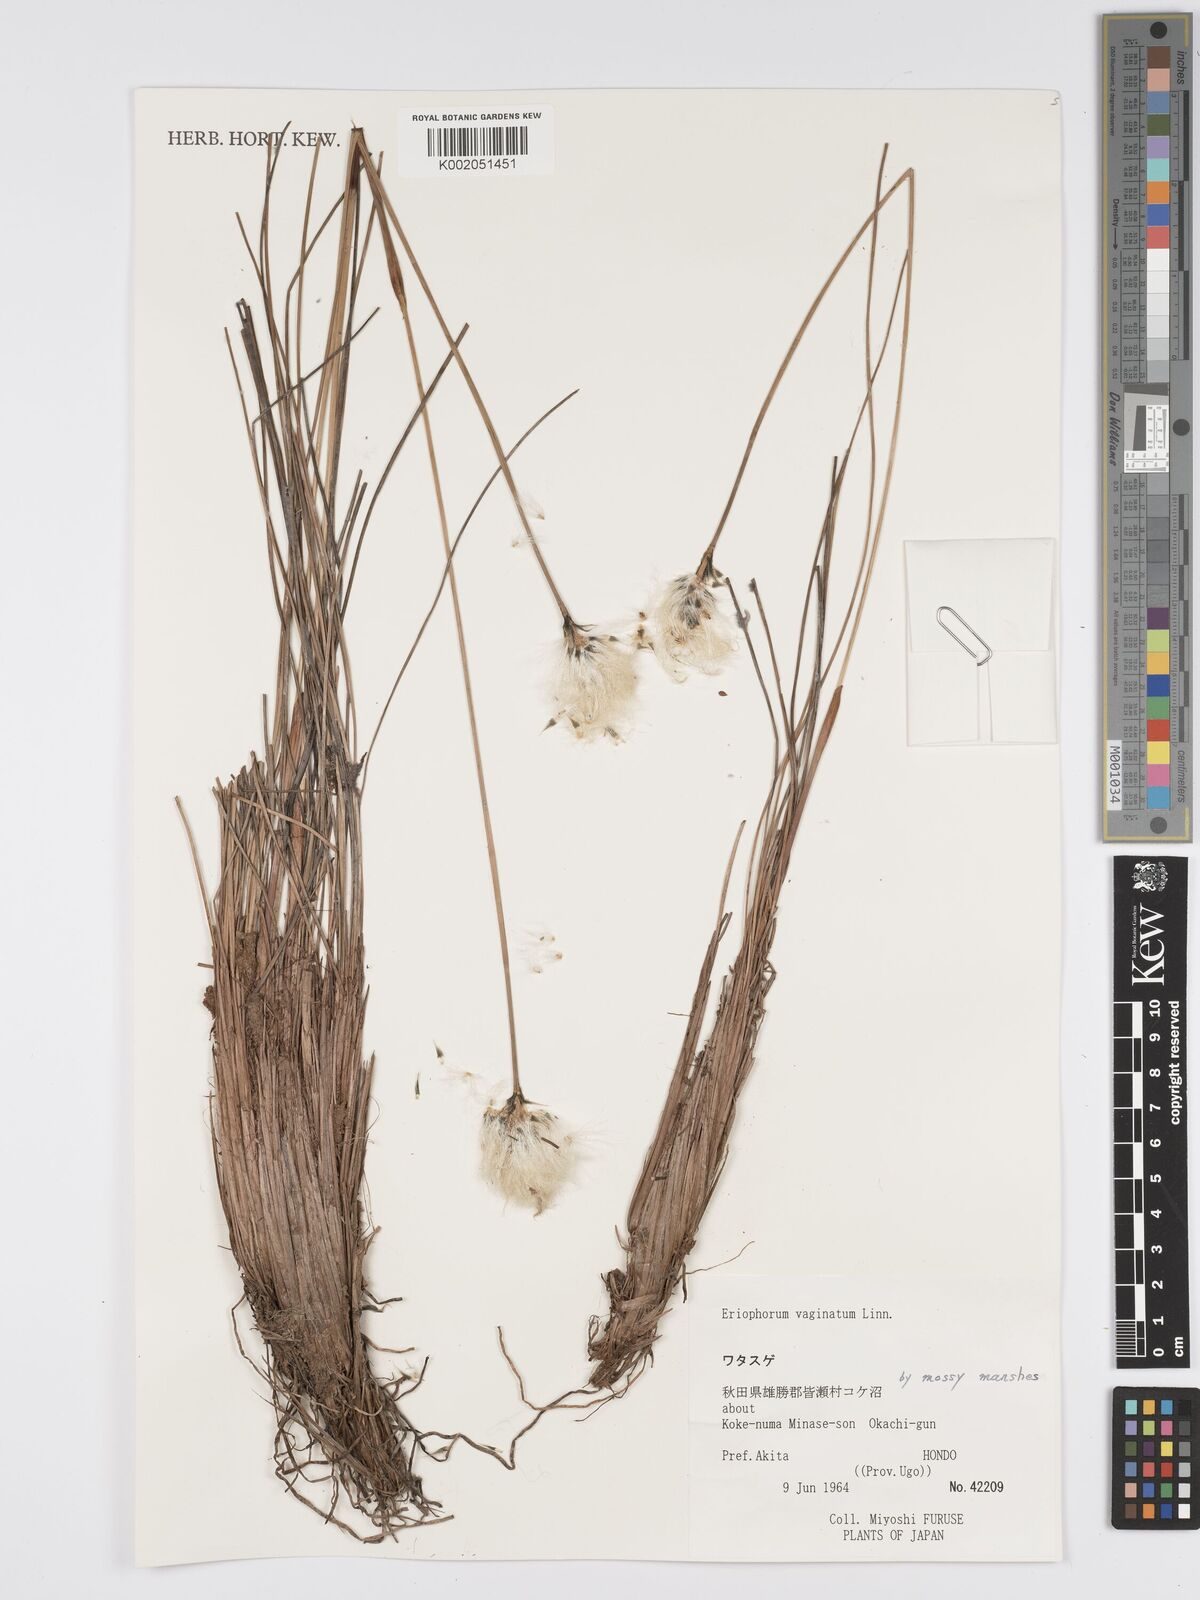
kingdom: Plantae
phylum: Tracheophyta
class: Liliopsida
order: Poales
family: Cyperaceae
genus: Eriophorum
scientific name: Eriophorum vaginatum
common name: Hare's-tail cottongrass
